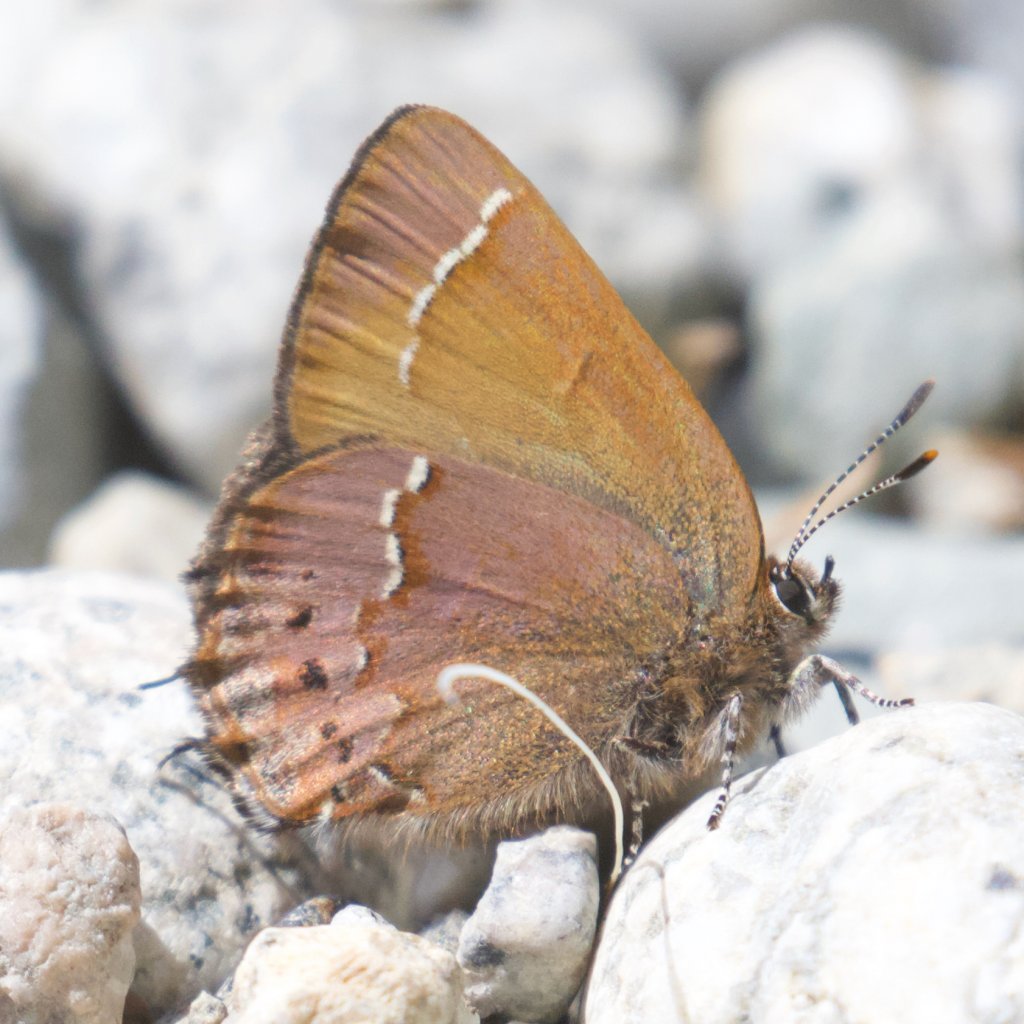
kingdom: Animalia
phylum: Arthropoda
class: Insecta
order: Lepidoptera
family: Lycaenidae
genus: Mitoura
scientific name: Mitoura gryneus
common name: Juniper Hairstreak
